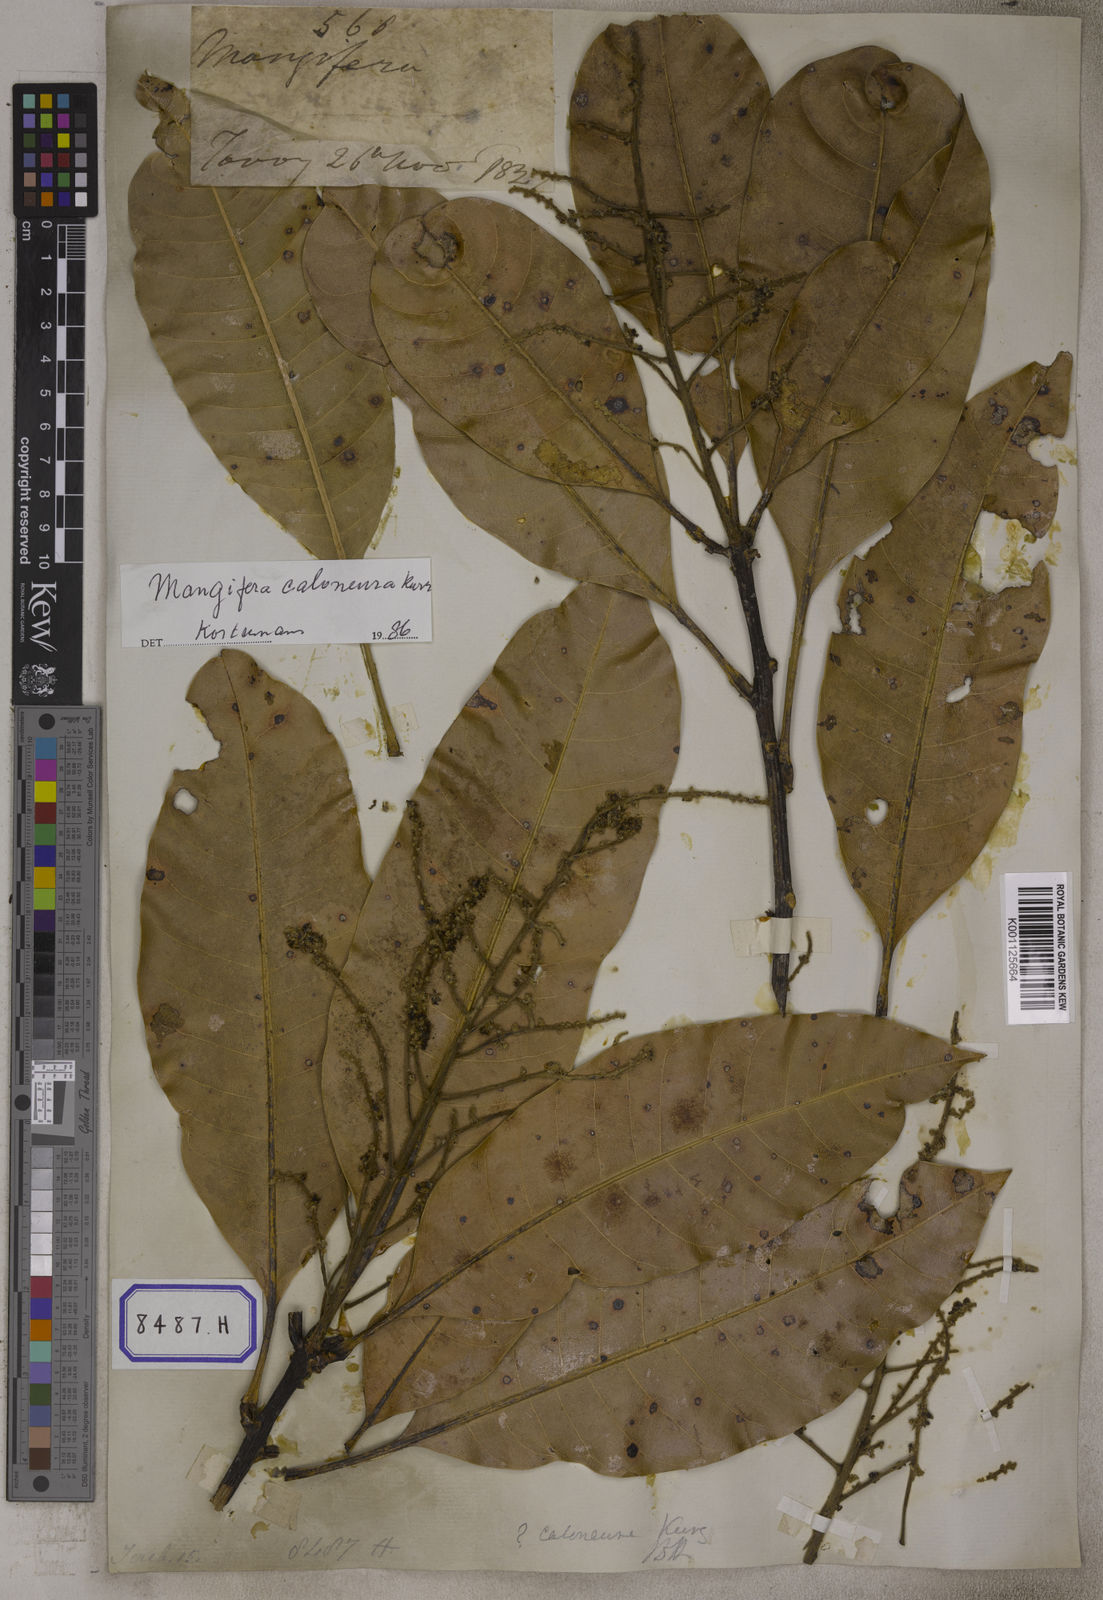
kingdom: Plantae
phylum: Tracheophyta
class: Magnoliopsida
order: Sapindales
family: Anacardiaceae
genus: Mangifera
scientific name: Mangifera indica
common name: Mango
